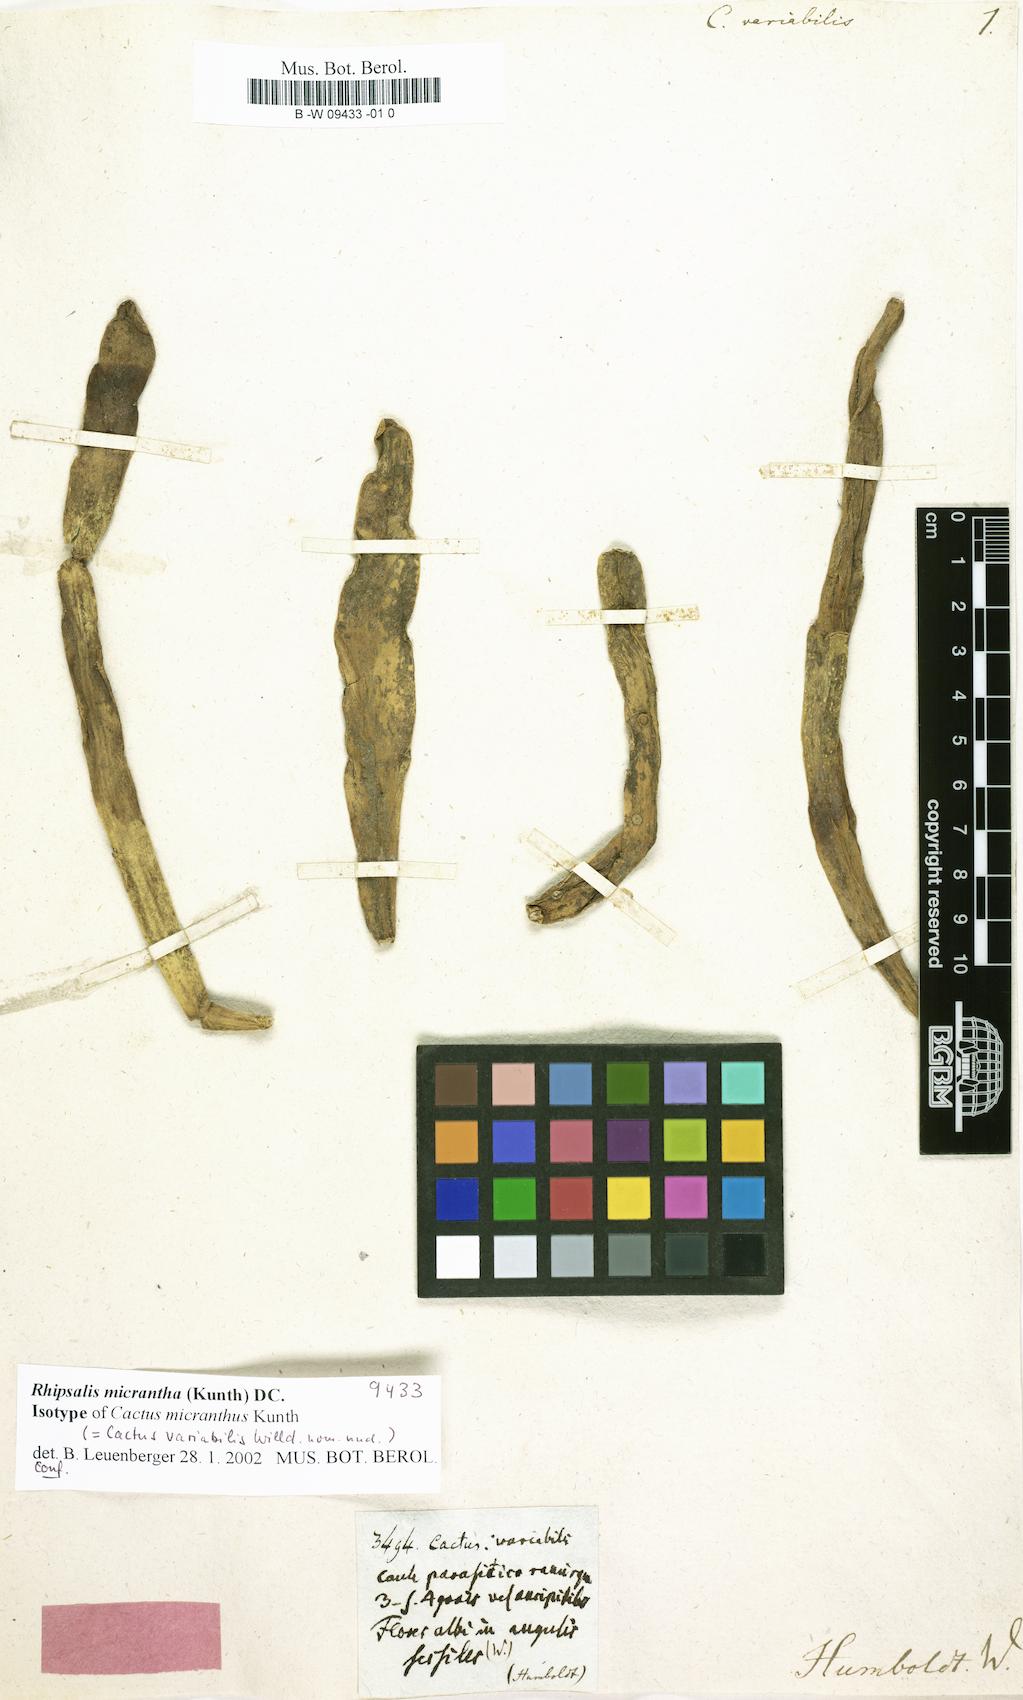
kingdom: Plantae
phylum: Tracheophyta
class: Magnoliopsida
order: Caryophyllales
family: Cactaceae
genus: Cactus
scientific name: Cactus
